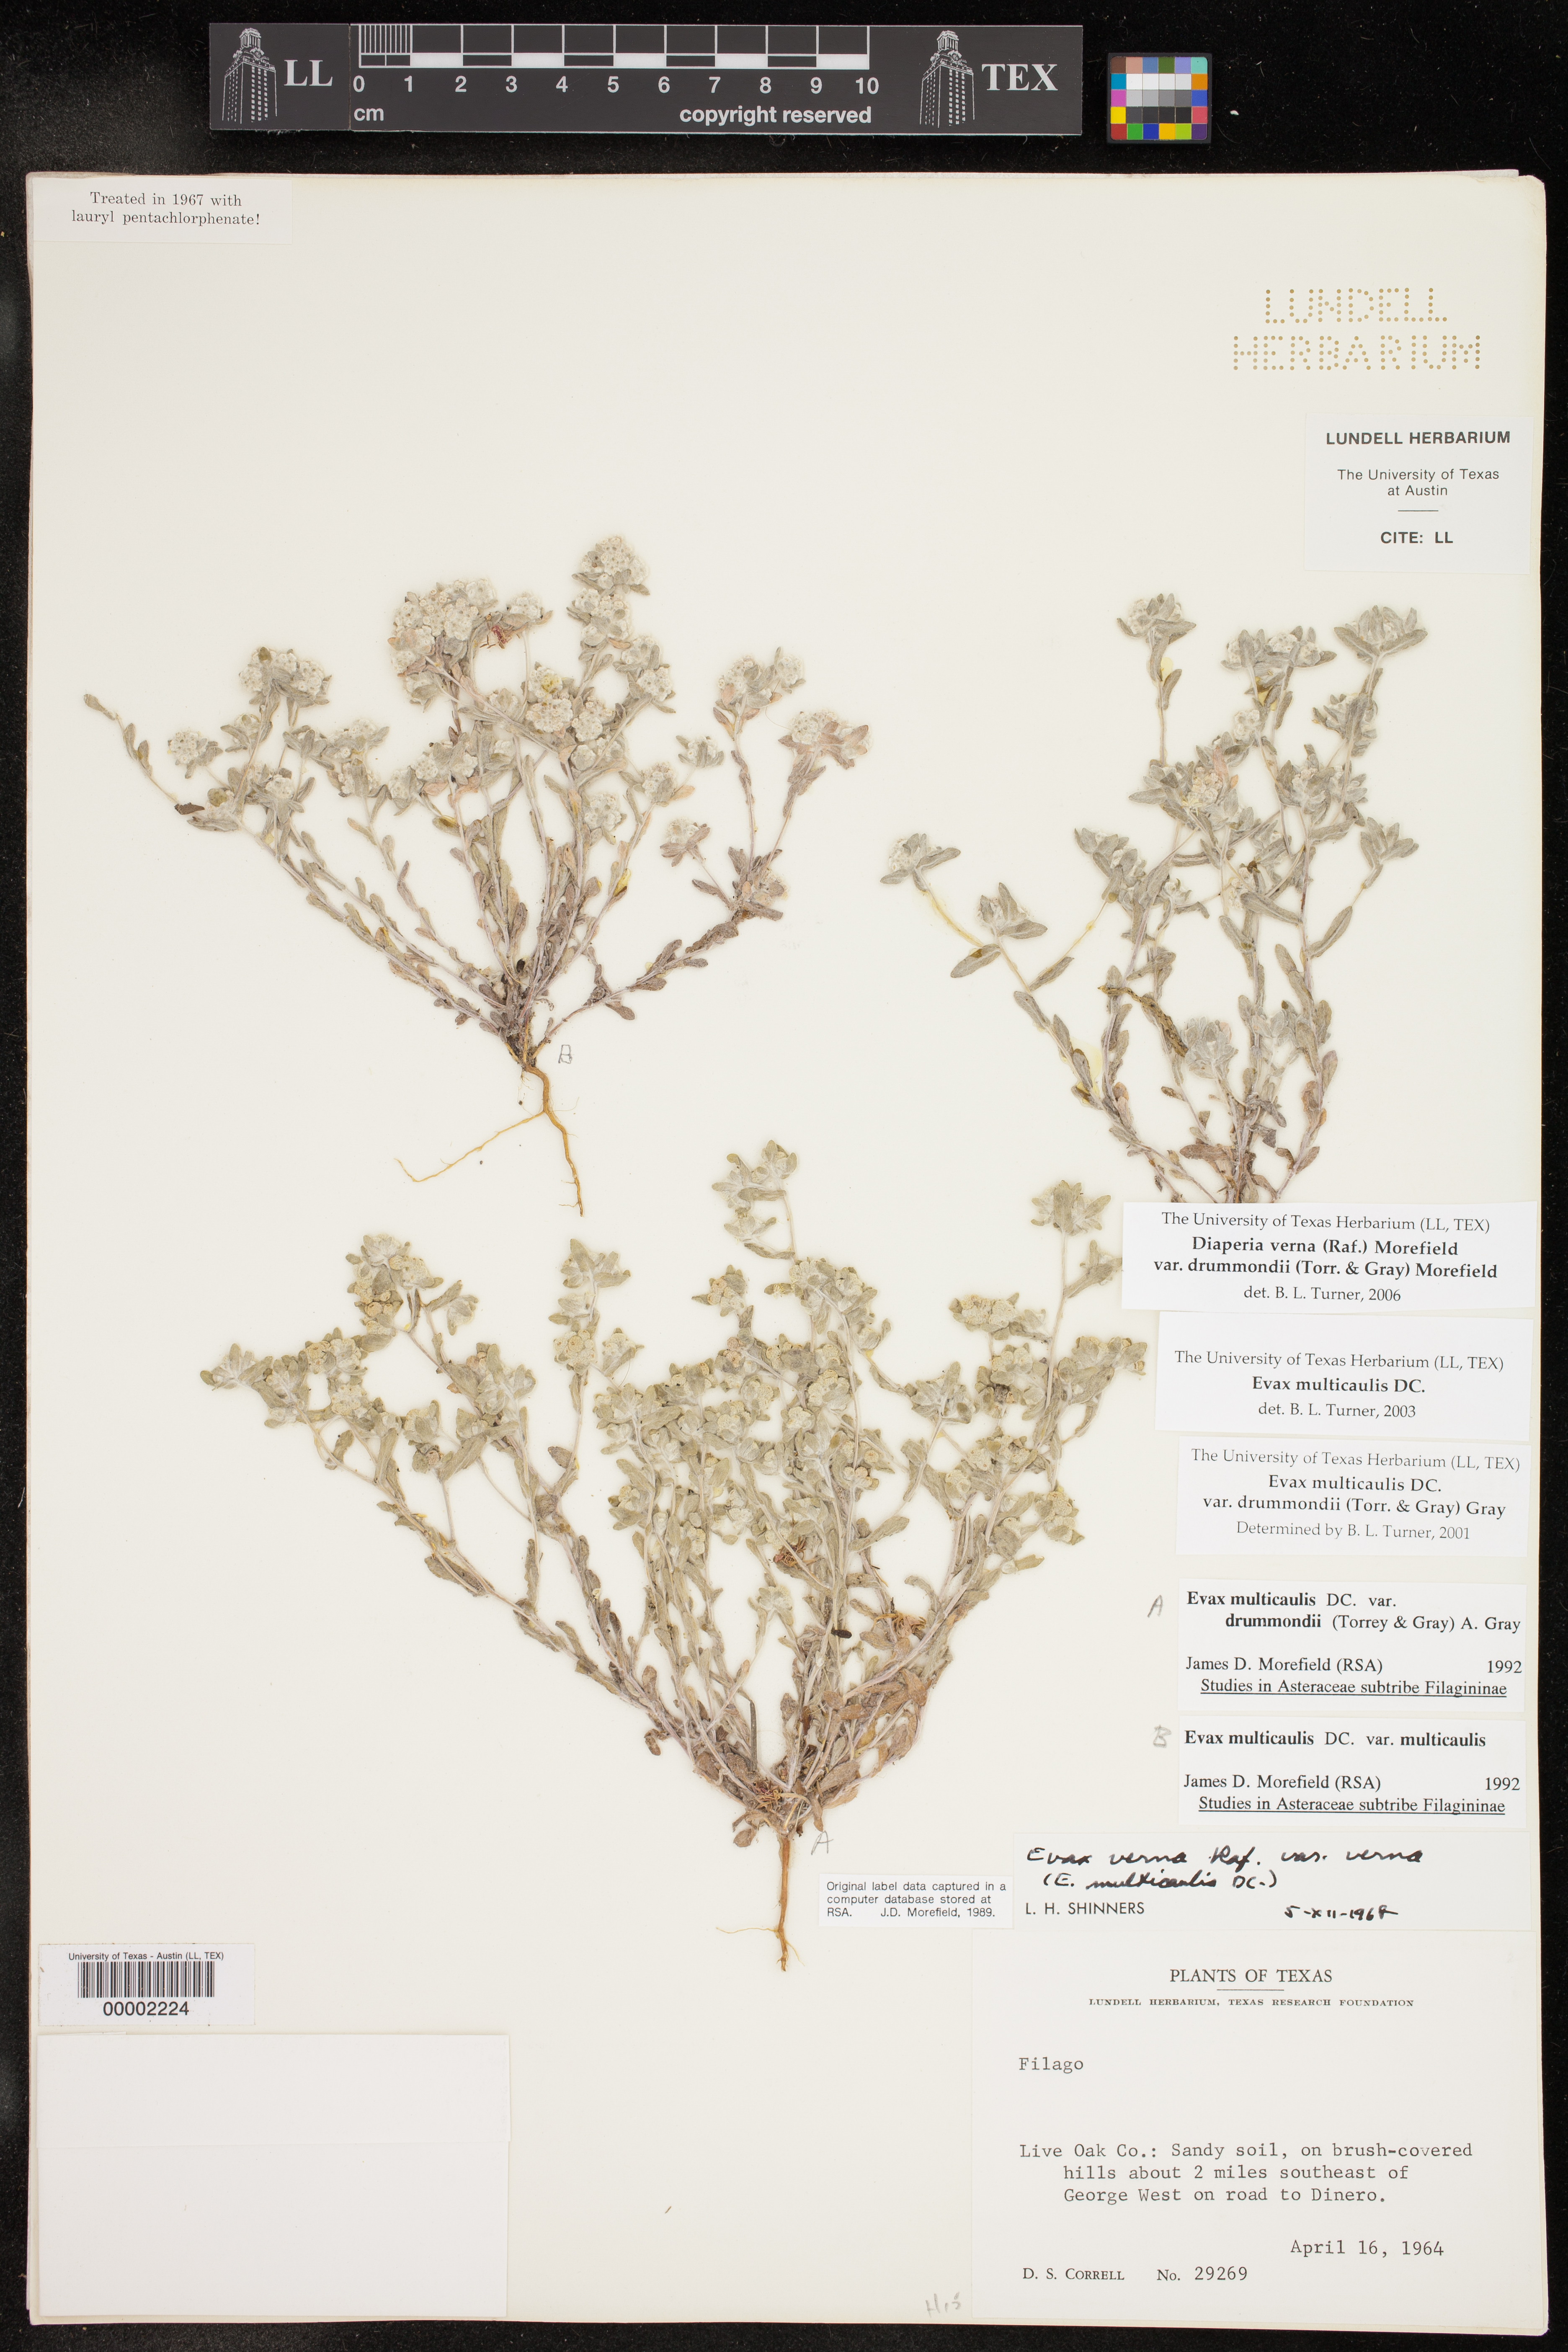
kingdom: Plantae
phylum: Tracheophyta
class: Magnoliopsida
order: Asterales
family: Asteraceae
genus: Diaperia
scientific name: Diaperia verna
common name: Many-stem rabbit-tobacco
